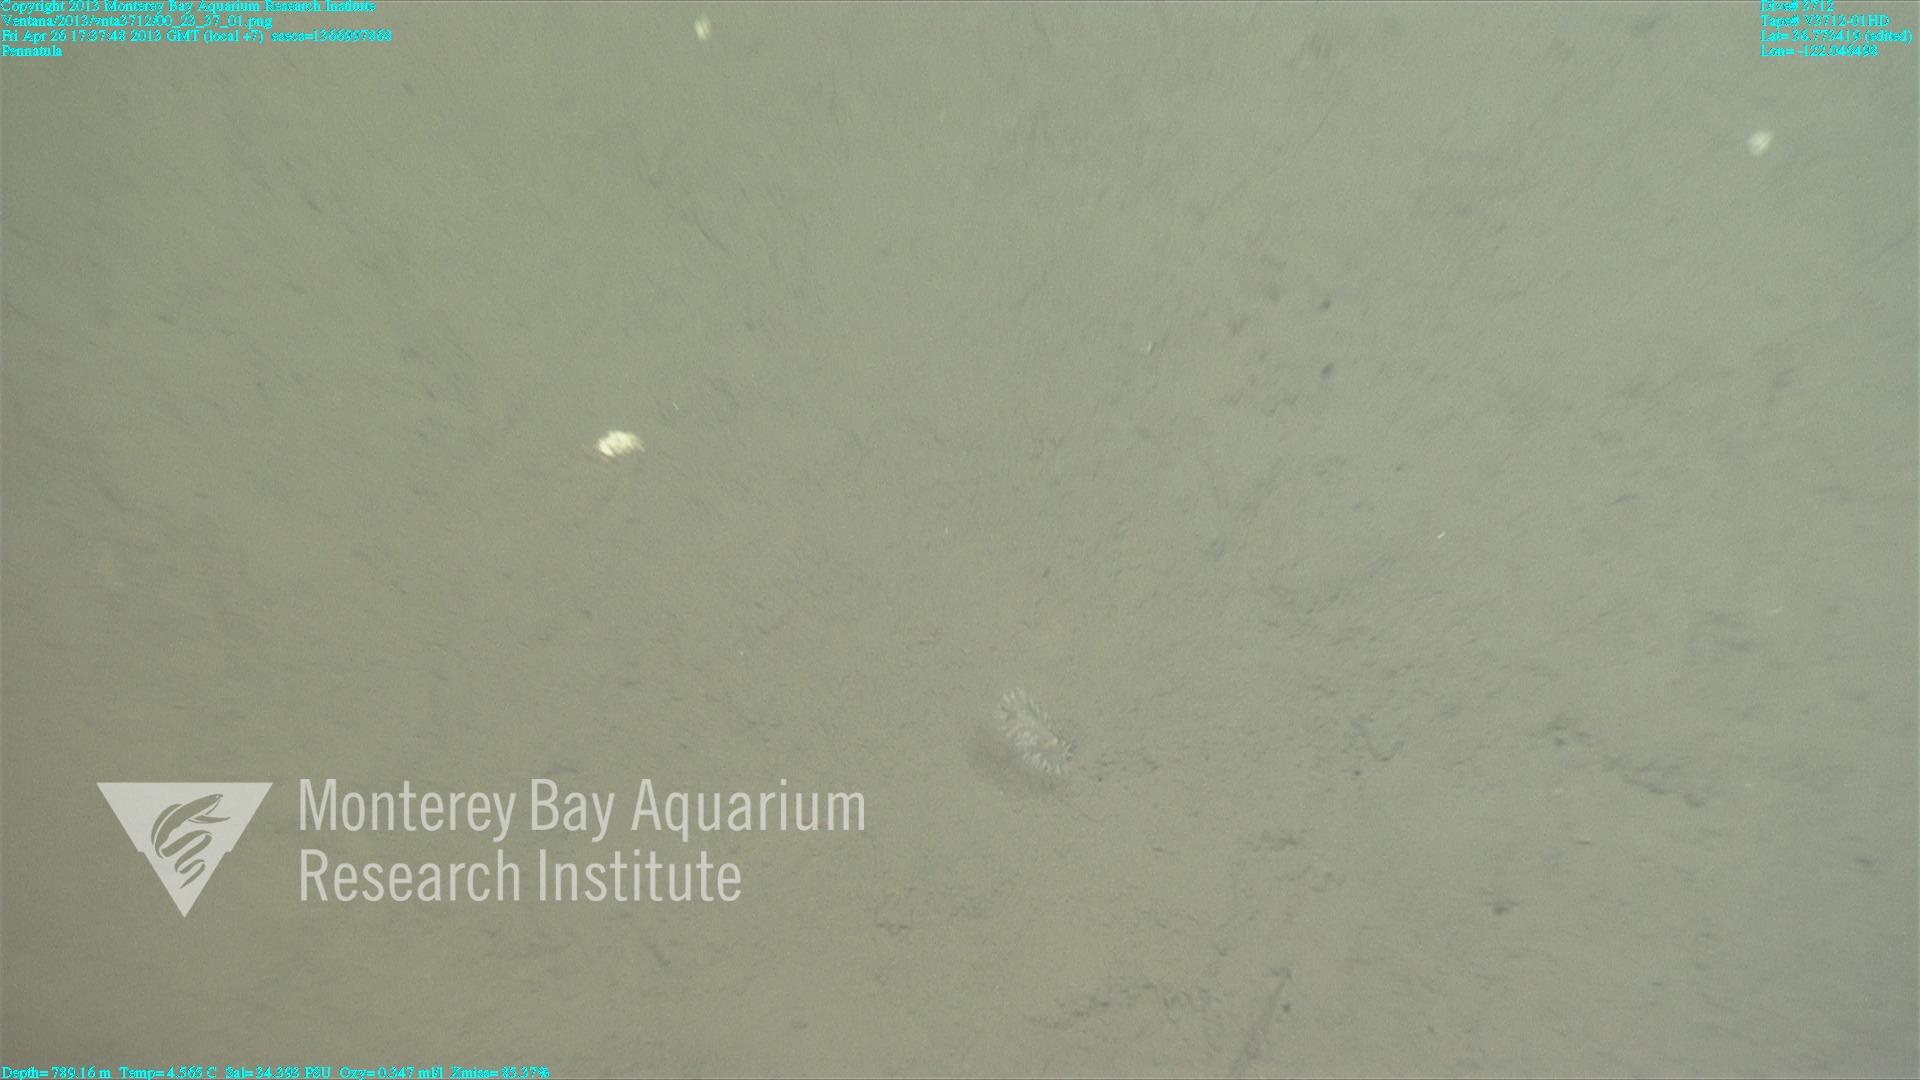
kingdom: Animalia
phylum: Cnidaria
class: Anthozoa
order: Scleralcyonacea
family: Pennatulidae
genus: Pennatula
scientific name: Pennatula
